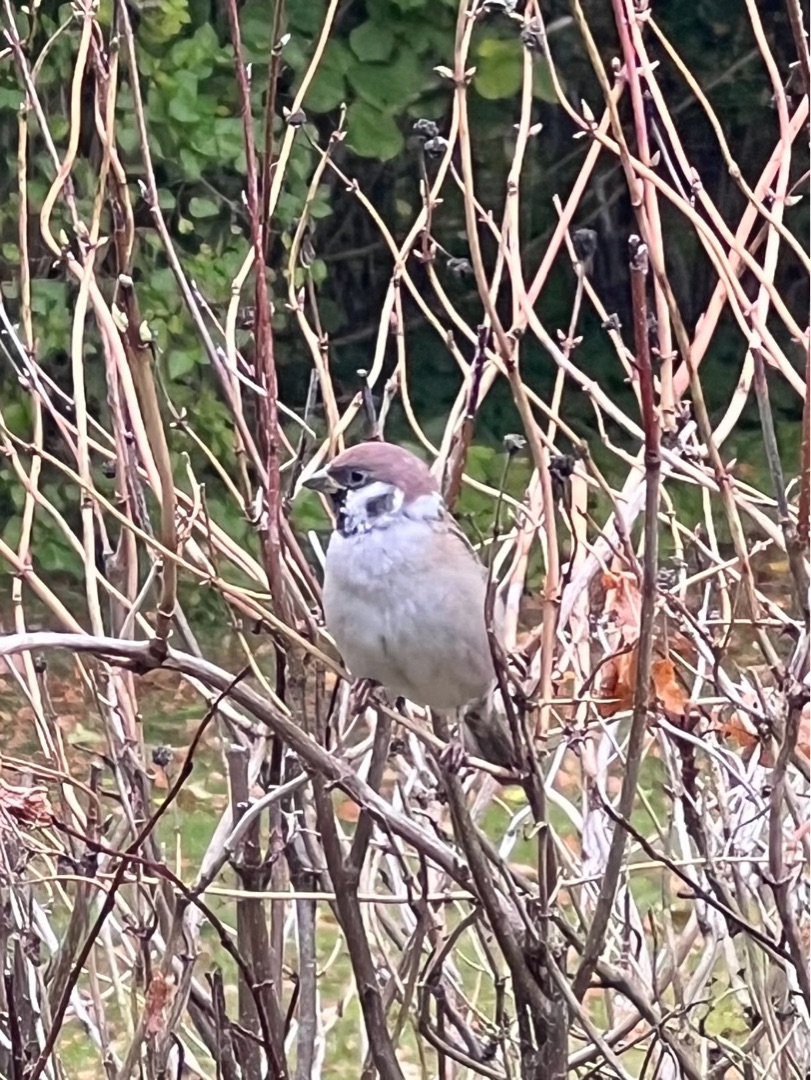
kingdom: Animalia
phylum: Chordata
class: Aves
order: Passeriformes
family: Passeridae
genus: Passer
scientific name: Passer montanus
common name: Skovspurv
